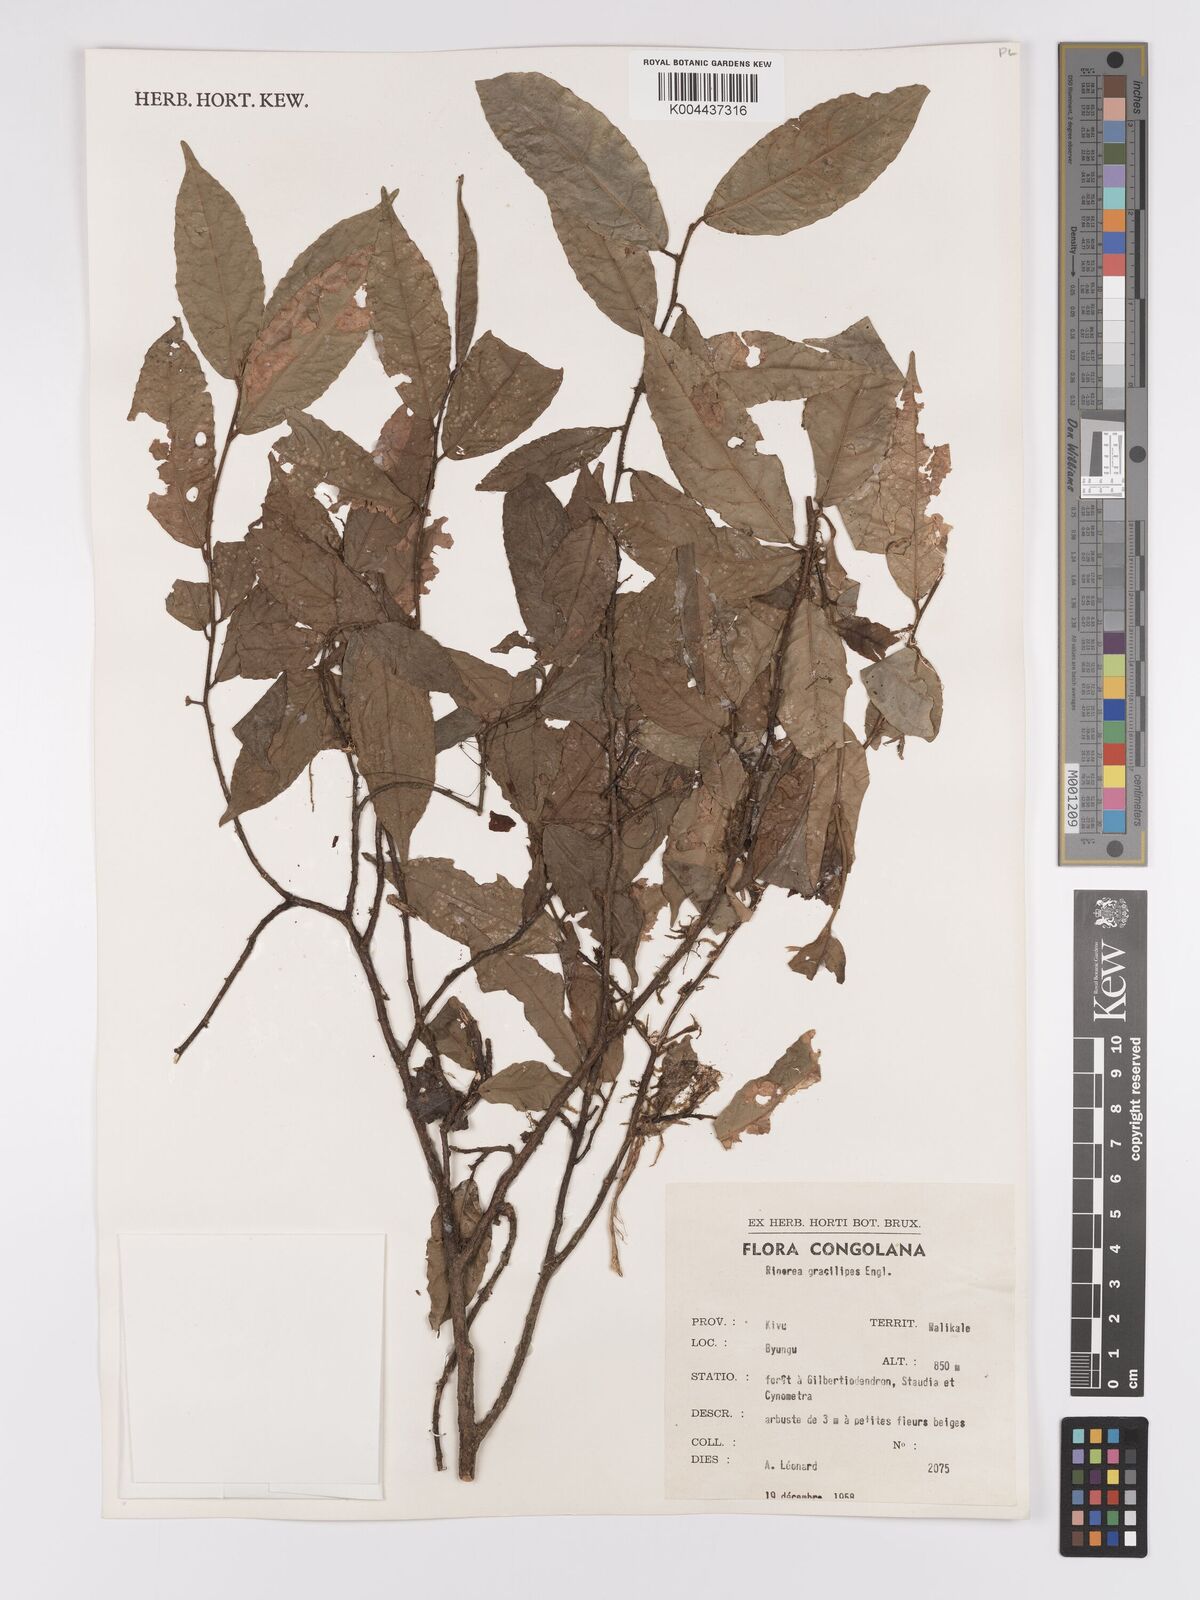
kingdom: Plantae
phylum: Tracheophyta
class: Magnoliopsida
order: Malpighiales
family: Violaceae
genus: Rinorea
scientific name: Rinorea angustifolia
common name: White violet-bush
